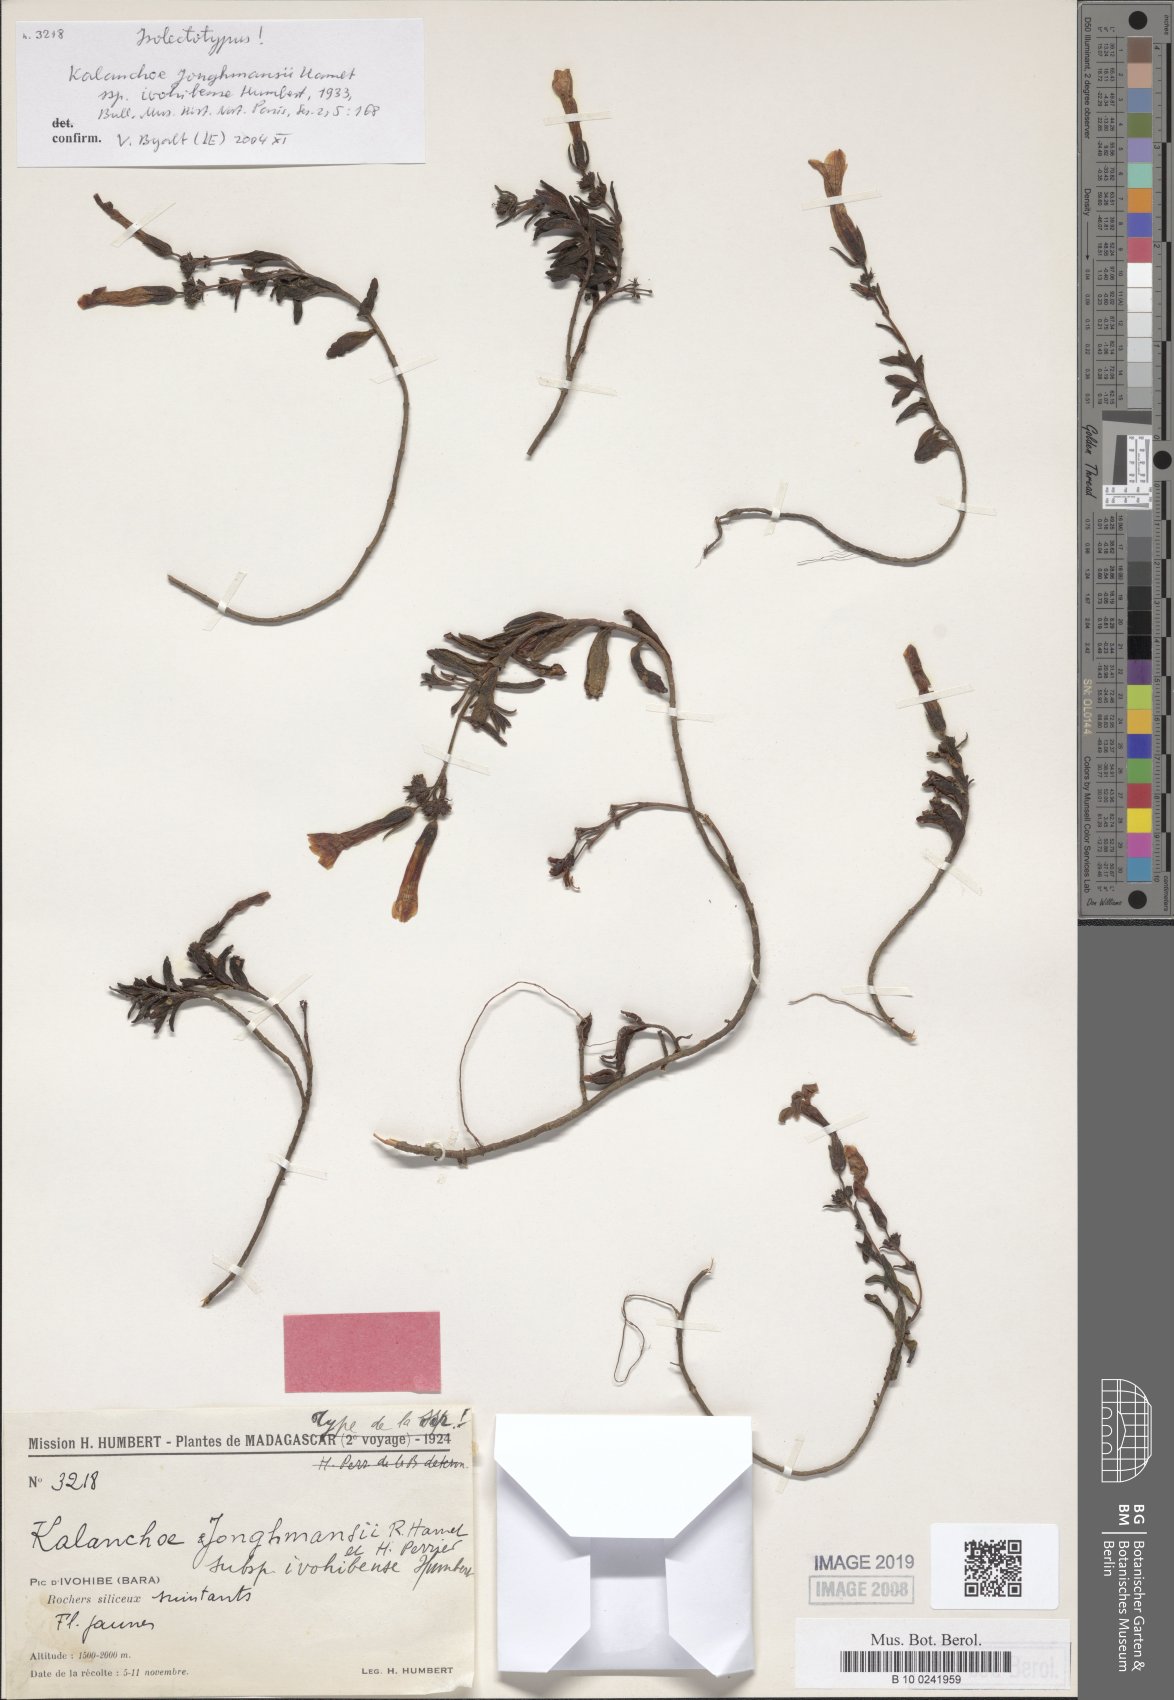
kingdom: Plantae
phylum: Tracheophyta
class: Magnoliopsida
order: Saxifragales
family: Crassulaceae
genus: Kalanchoe
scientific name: Kalanchoe jongmansii
